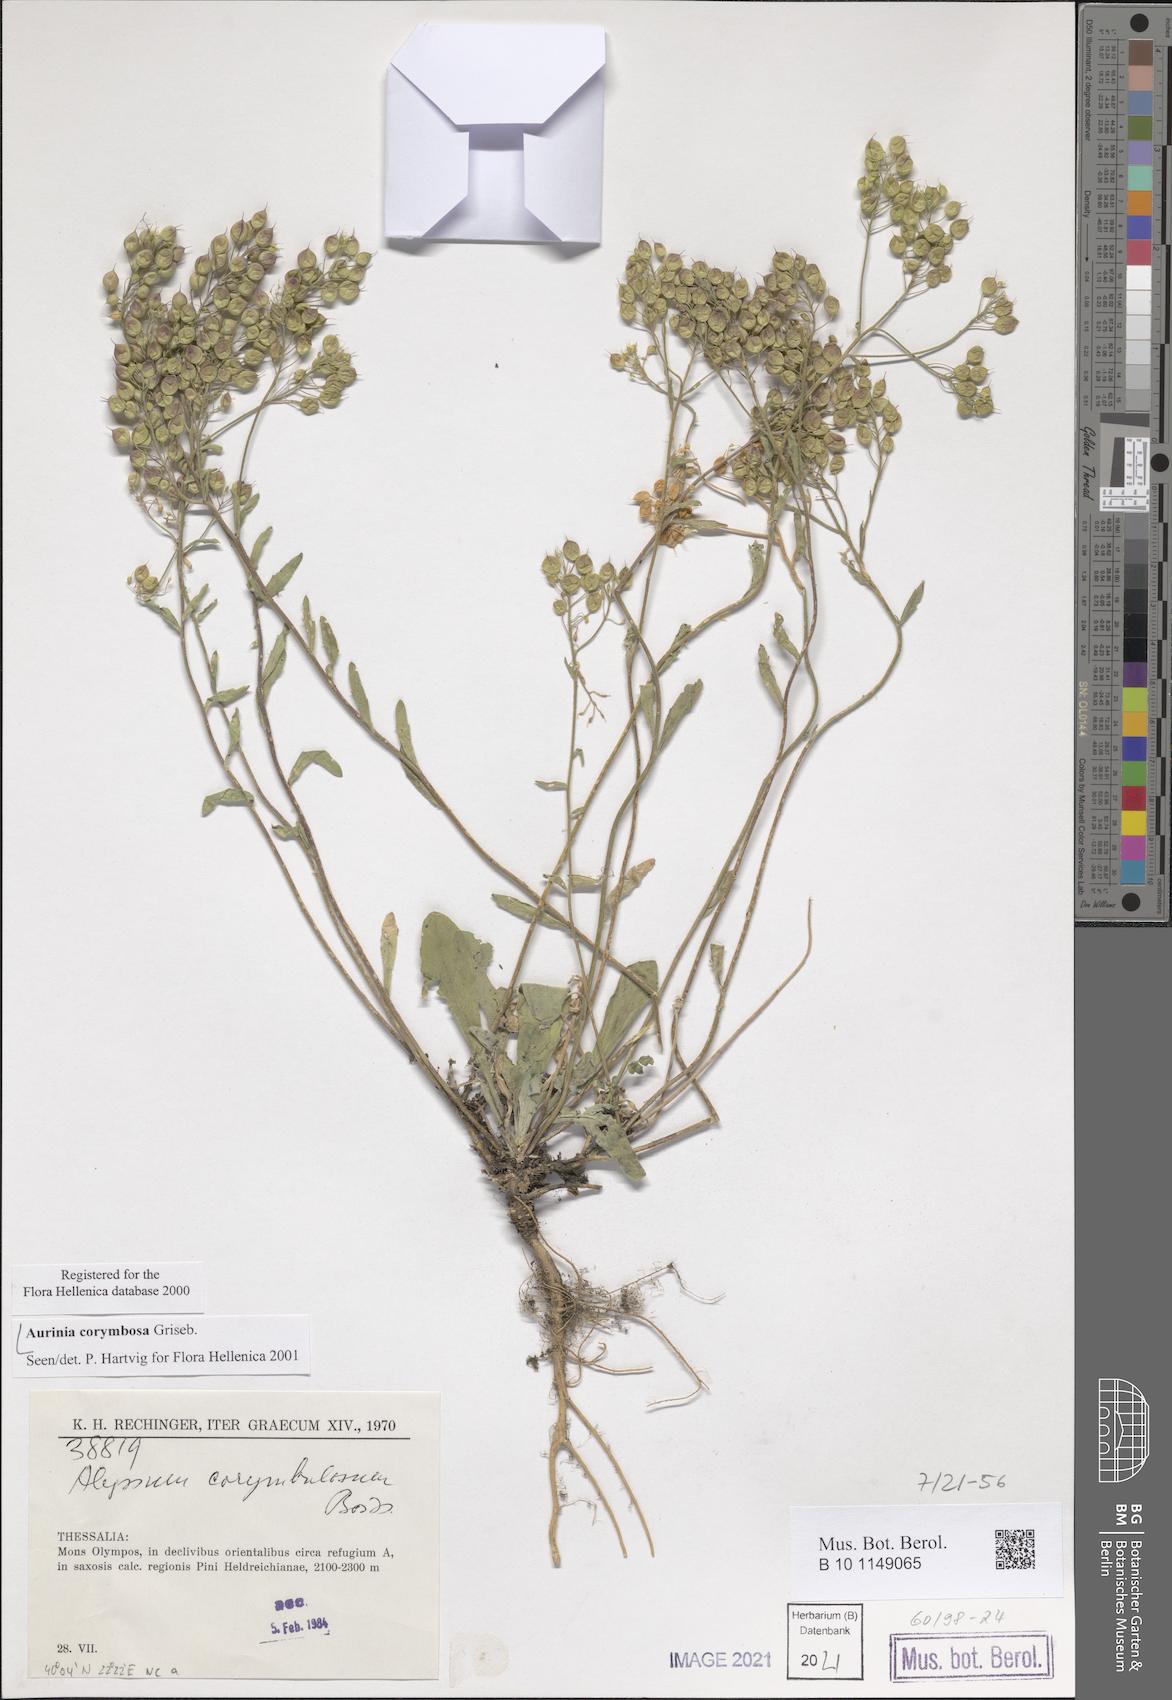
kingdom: Plantae
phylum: Tracheophyta
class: Magnoliopsida
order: Brassicales
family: Brassicaceae
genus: Aurinia
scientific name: Aurinia corymbosa
